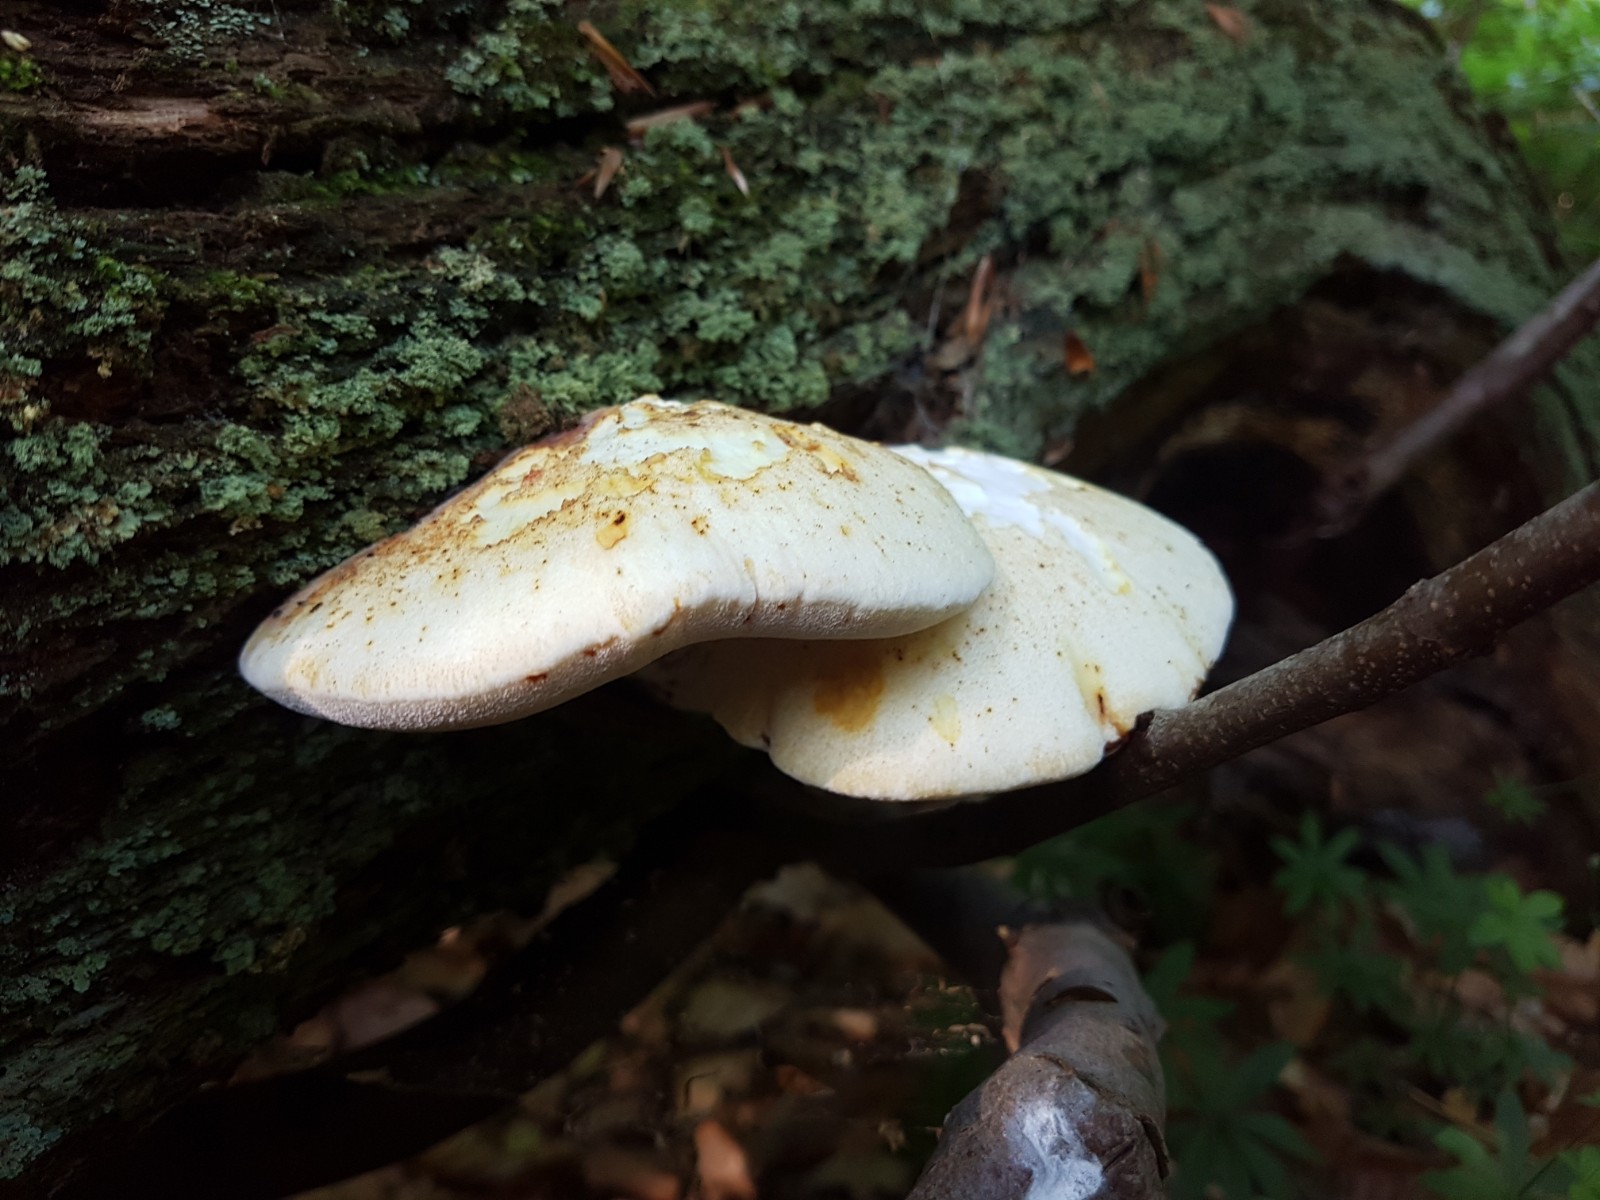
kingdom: Fungi
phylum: Basidiomycota
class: Agaricomycetes
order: Polyporales
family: Fomitopsidaceae
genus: Buglossoporus
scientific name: Buglossoporus quercinus
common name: egetunge
